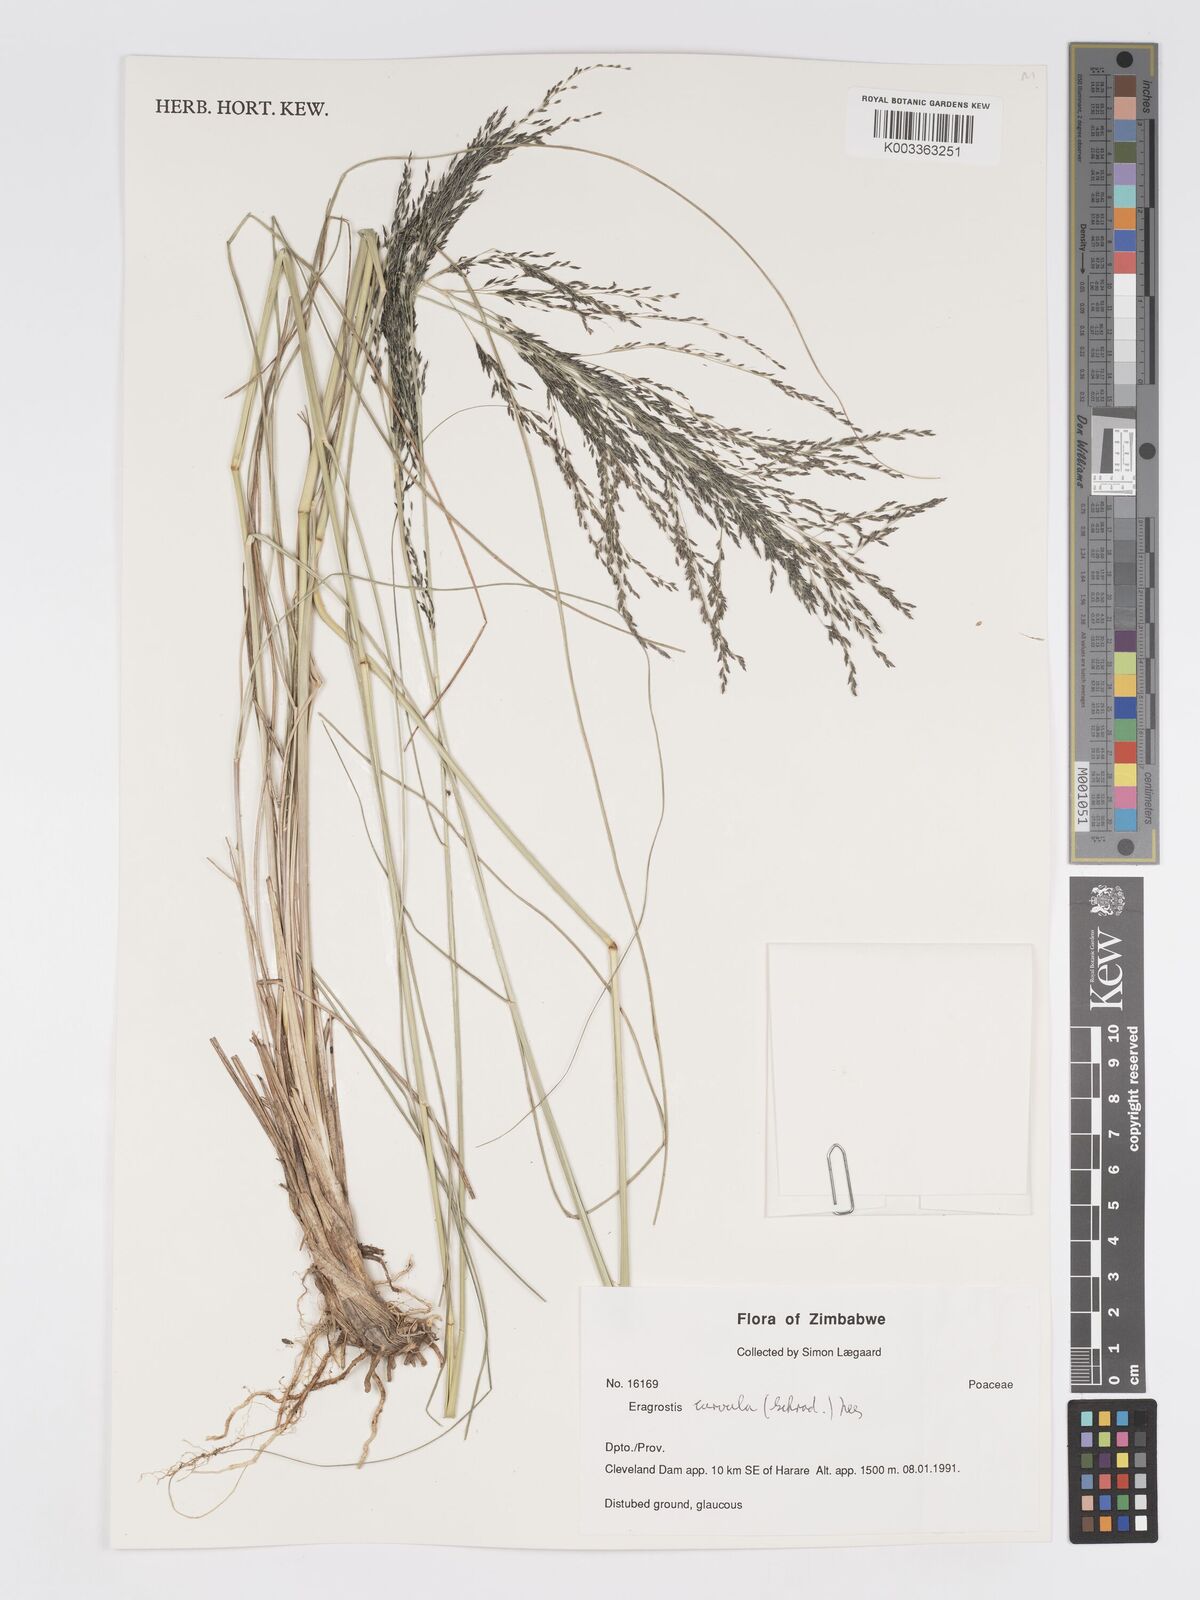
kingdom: Plantae
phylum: Tracheophyta
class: Liliopsida
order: Poales
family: Poaceae
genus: Eragrostis
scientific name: Eragrostis curvula
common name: African love-grass
